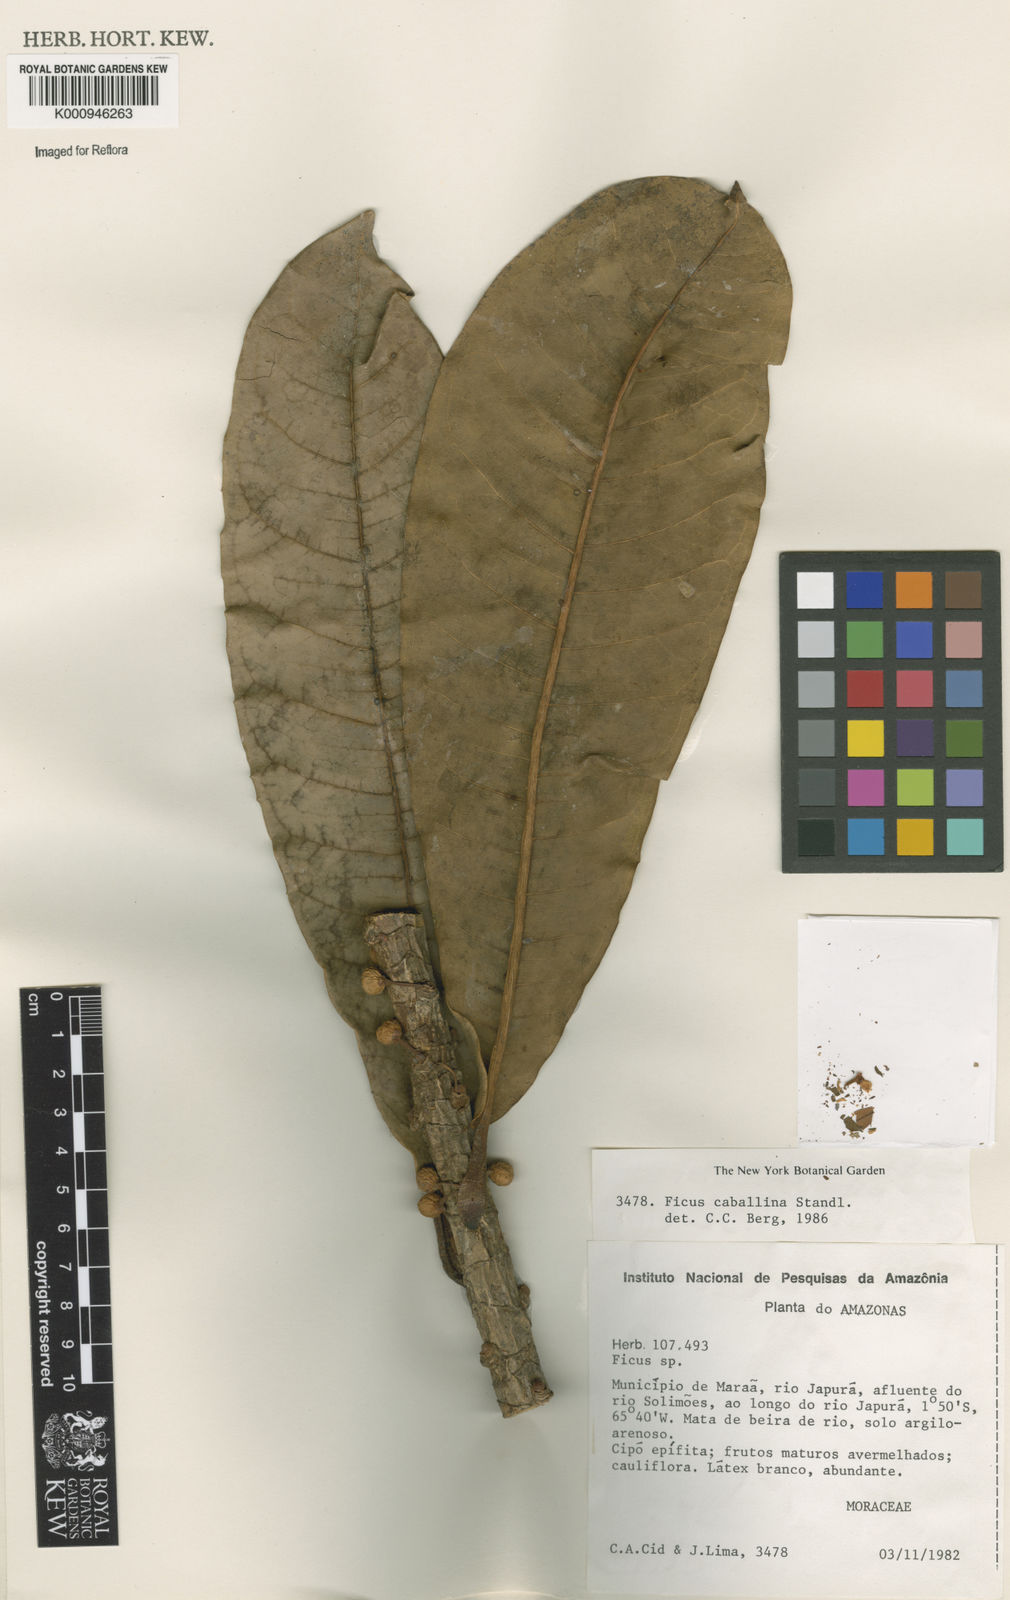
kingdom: Plantae
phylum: Tracheophyta
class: Magnoliopsida
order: Rosales
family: Moraceae
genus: Ficus
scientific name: Ficus caballina
